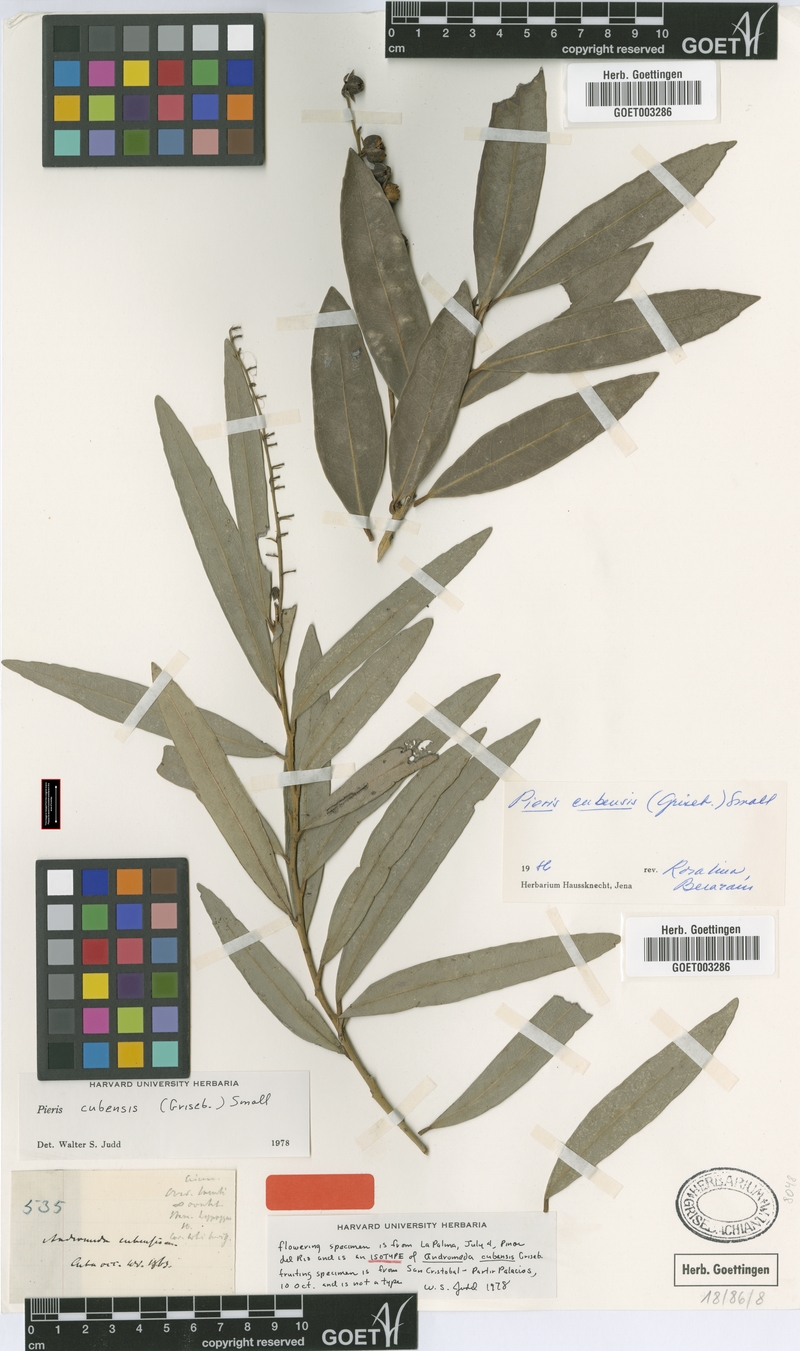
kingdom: Plantae
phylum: Tracheophyta
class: Magnoliopsida
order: Ericales
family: Ericaceae
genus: Pieris
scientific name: Pieris cubensis
